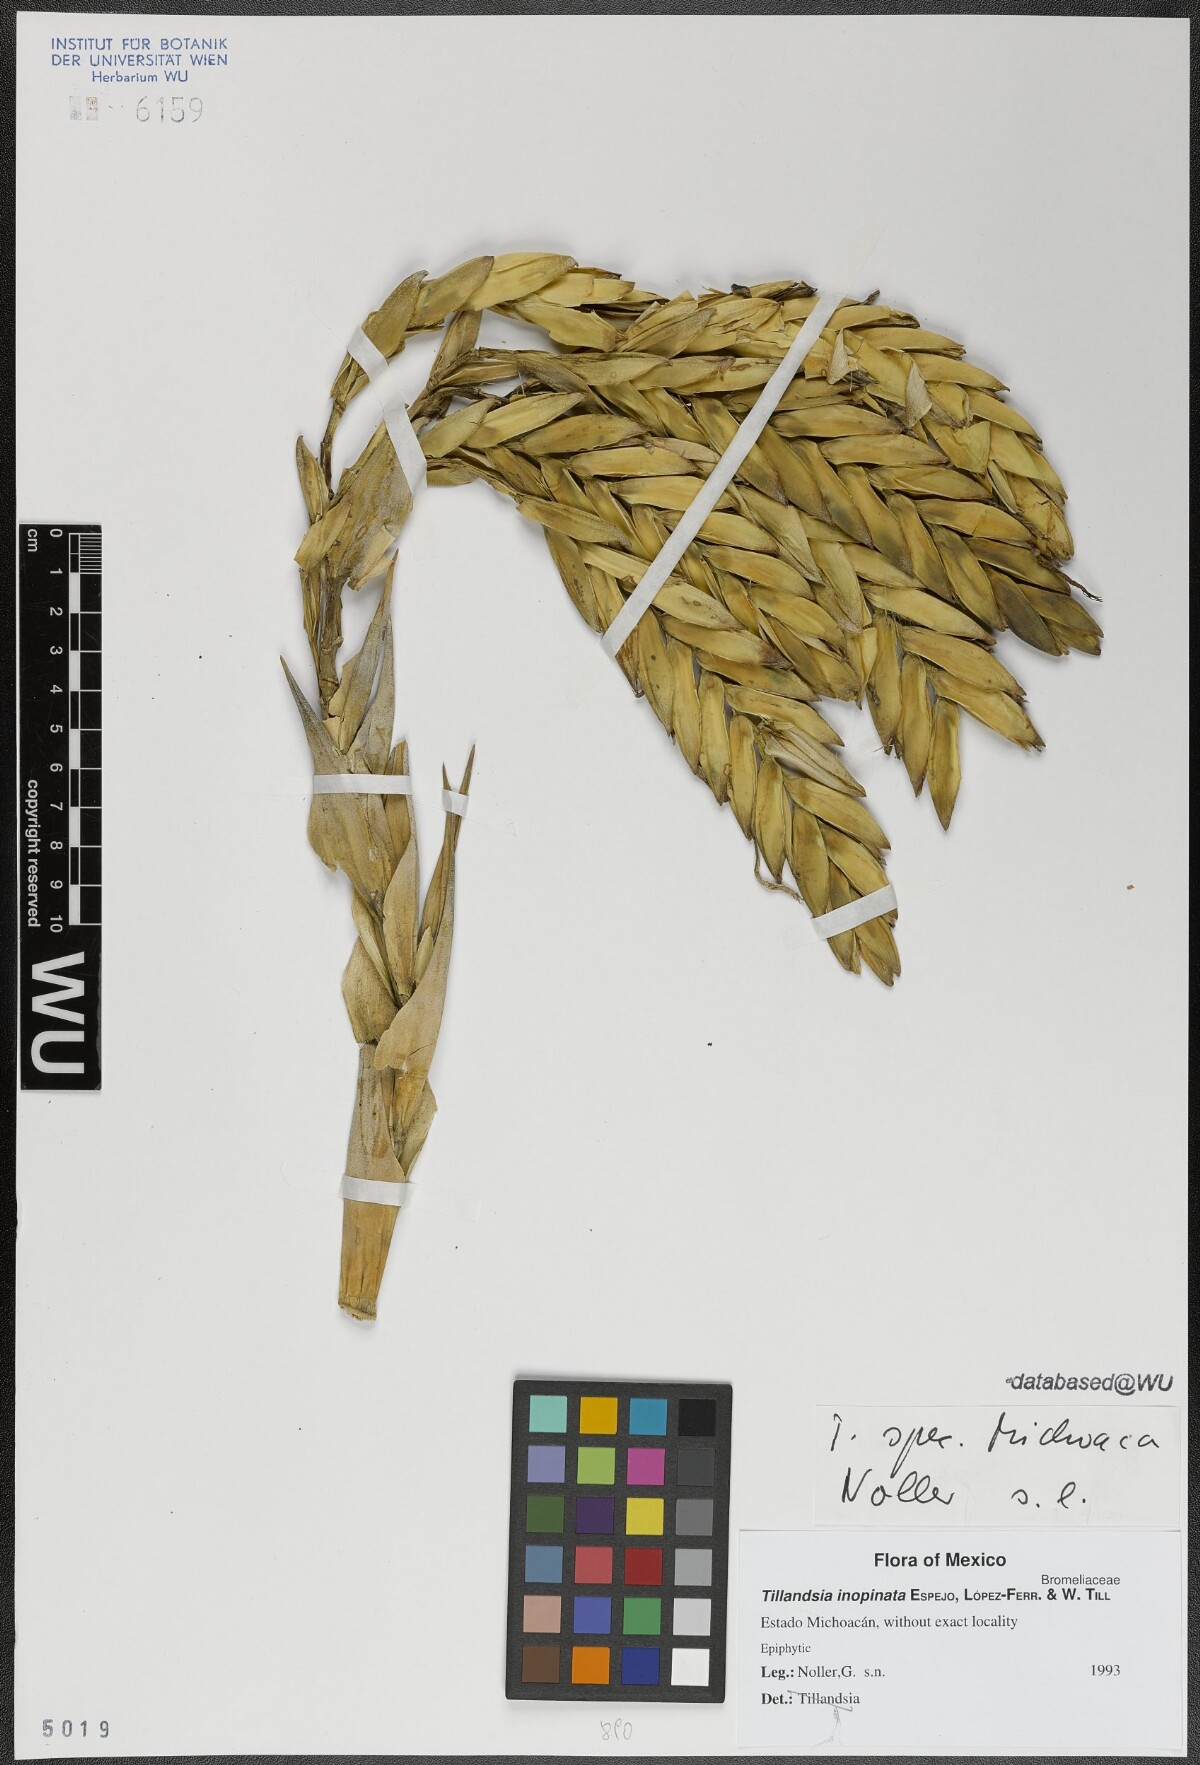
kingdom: Plantae
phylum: Tracheophyta
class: Liliopsida
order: Poales
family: Bromeliaceae
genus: Tillandsia
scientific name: Tillandsia inopinata
